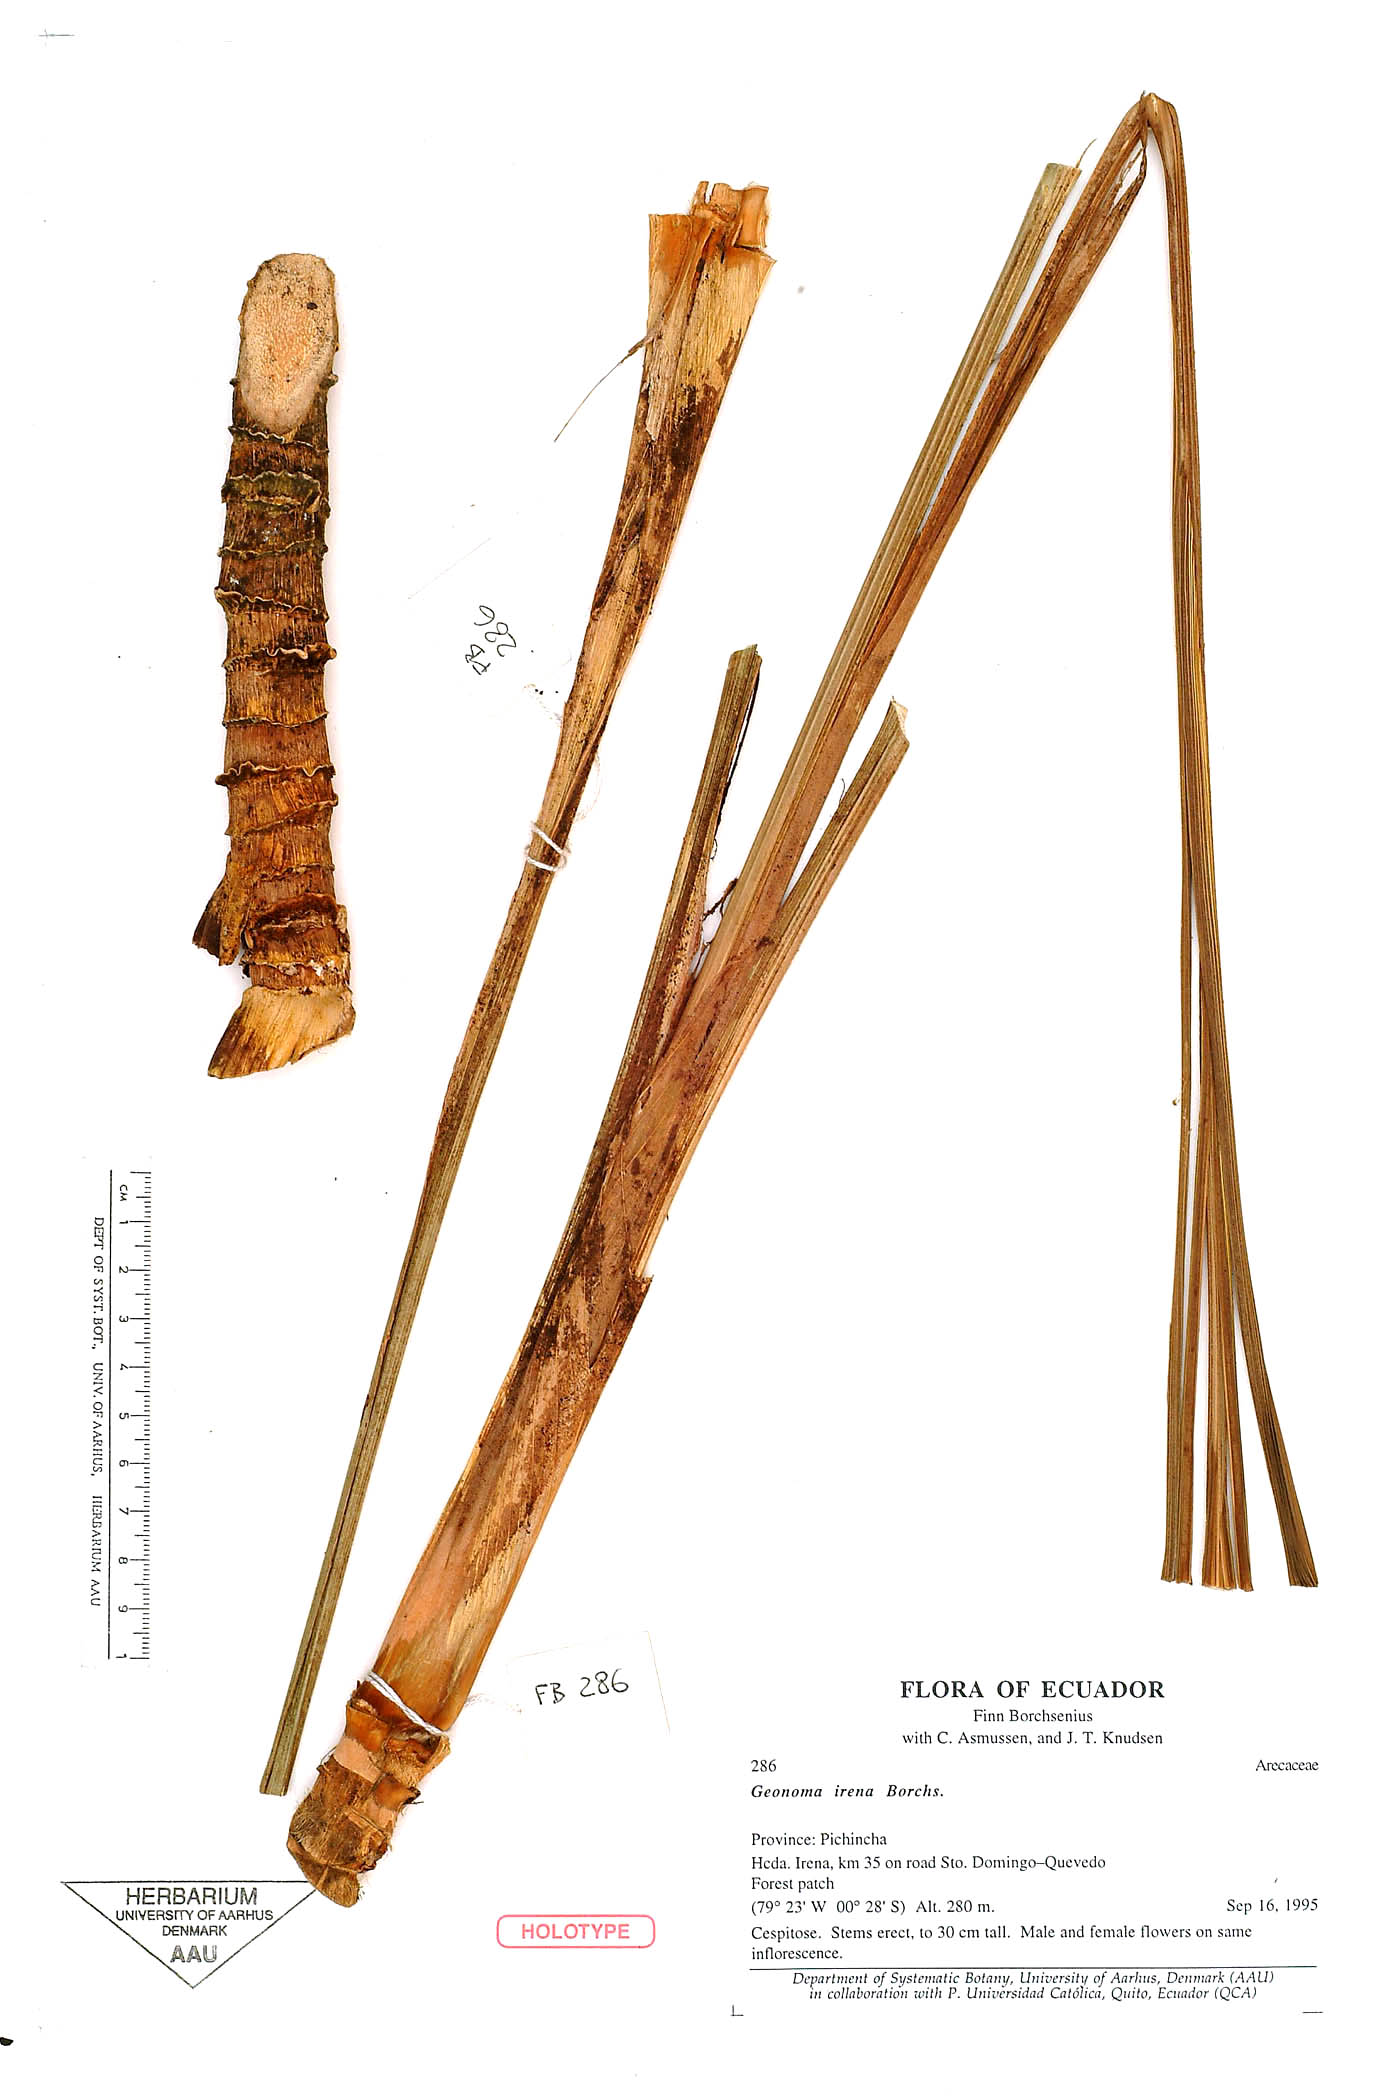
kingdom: Plantae
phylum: Tracheophyta
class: Liliopsida
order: Arecales
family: Arecaceae
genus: Geonoma
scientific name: Geonoma cuneata
